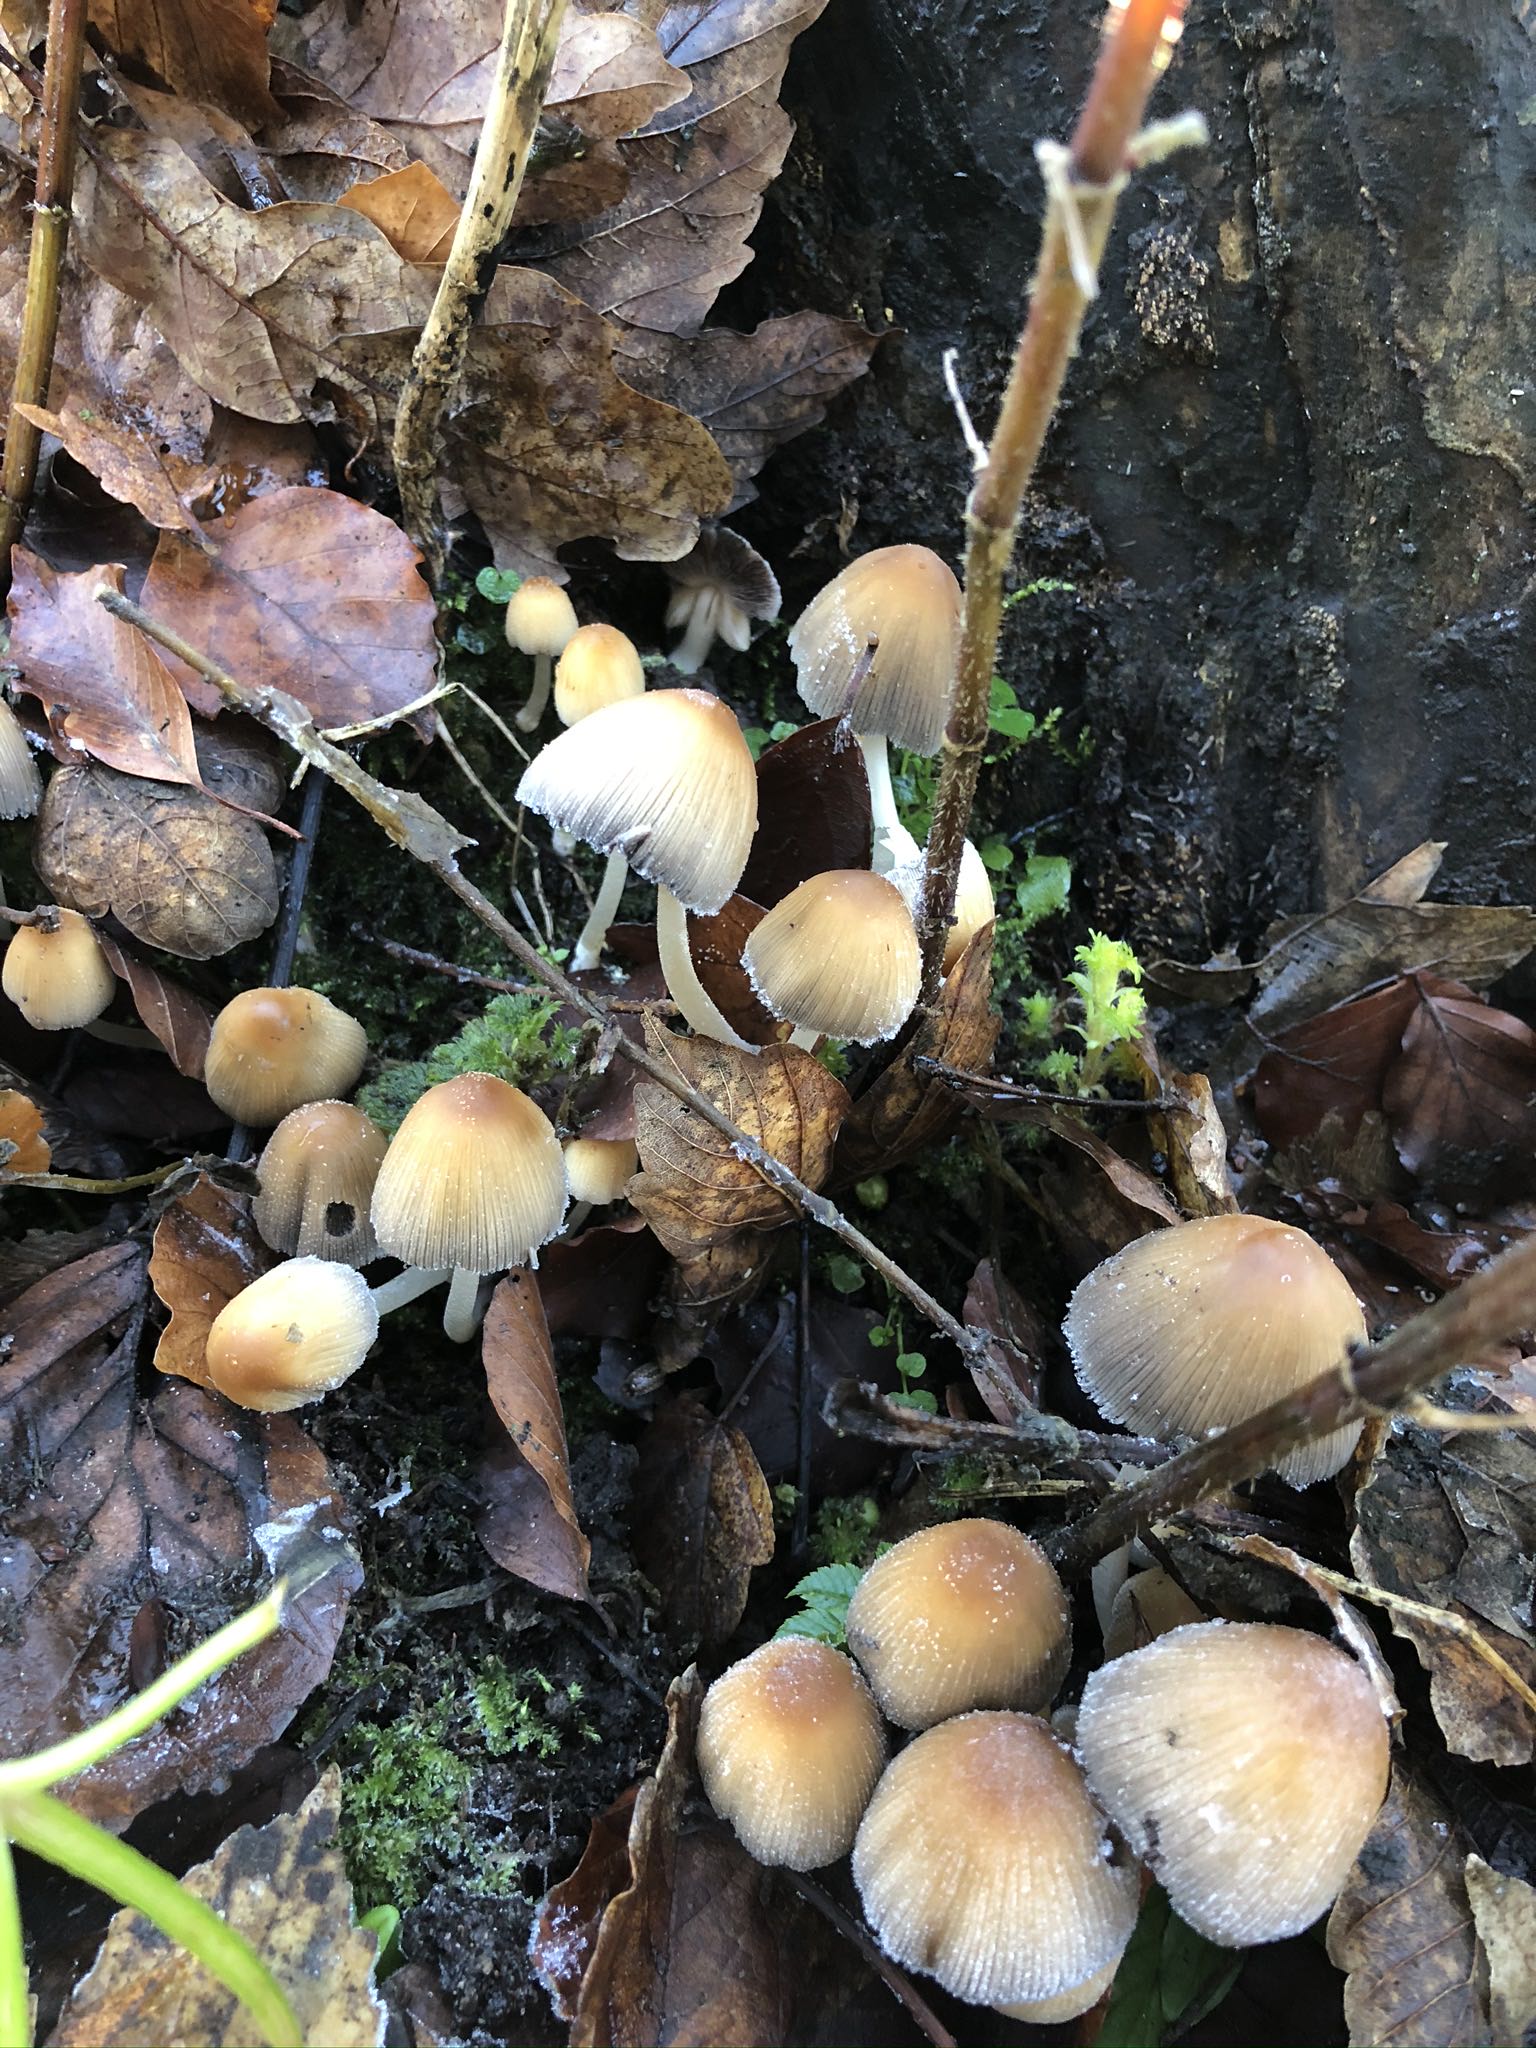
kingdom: Fungi
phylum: Basidiomycota
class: Agaricomycetes
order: Agaricales
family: Psathyrellaceae
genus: Coprinellus
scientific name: Coprinellus micaceus
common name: glimmer-blækhat
